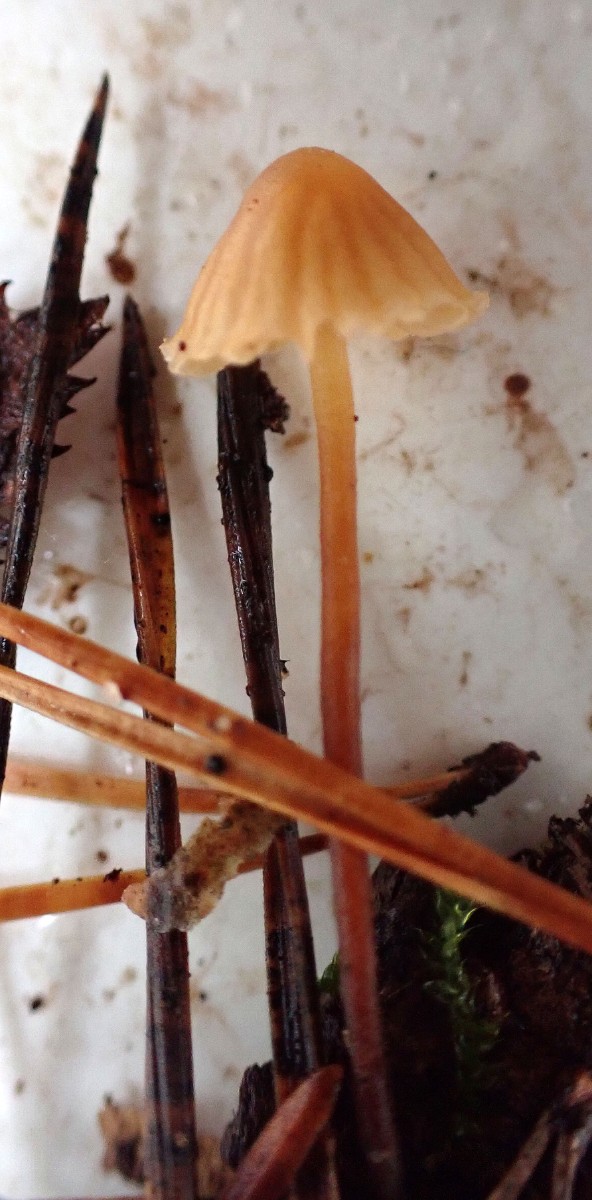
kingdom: Fungi
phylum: Basidiomycota
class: Agaricomycetes
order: Agaricales
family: Hymenogastraceae
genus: Galerina
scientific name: Galerina
